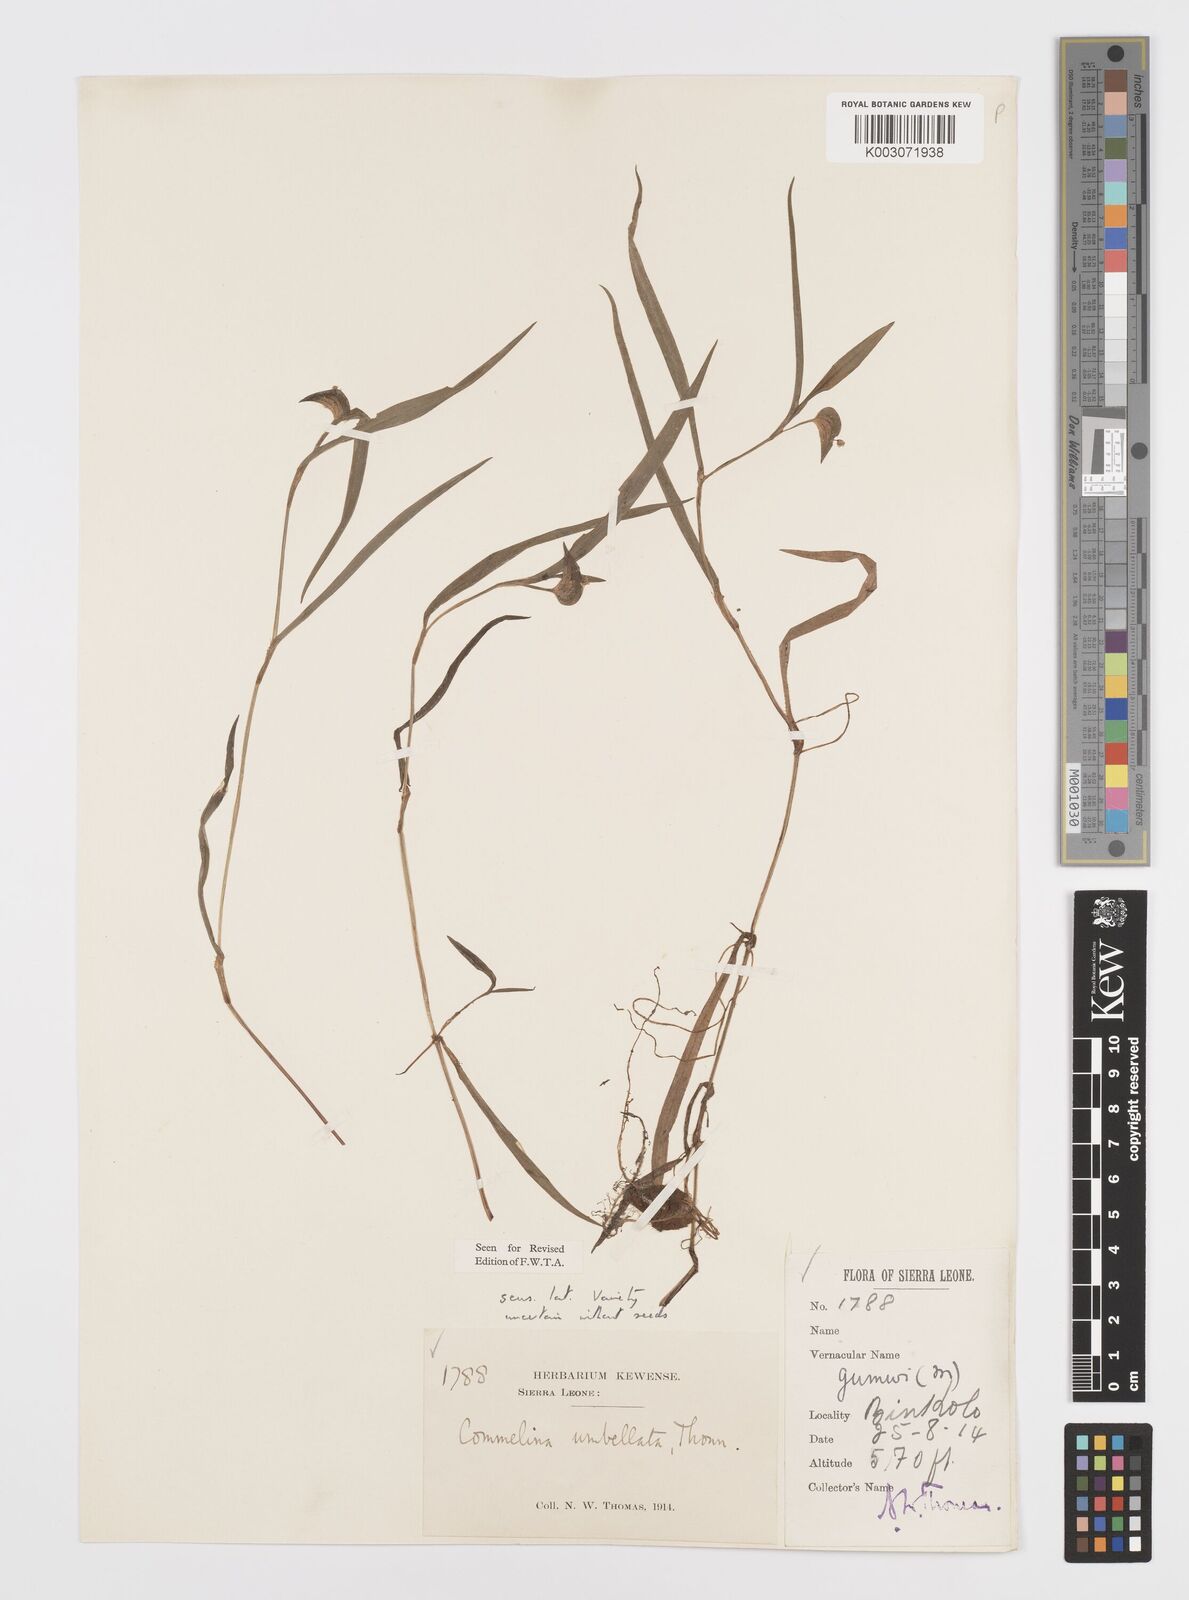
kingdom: Plantae
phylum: Tracheophyta
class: Liliopsida
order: Commelinales
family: Commelinaceae
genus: Commelina
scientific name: Commelina
